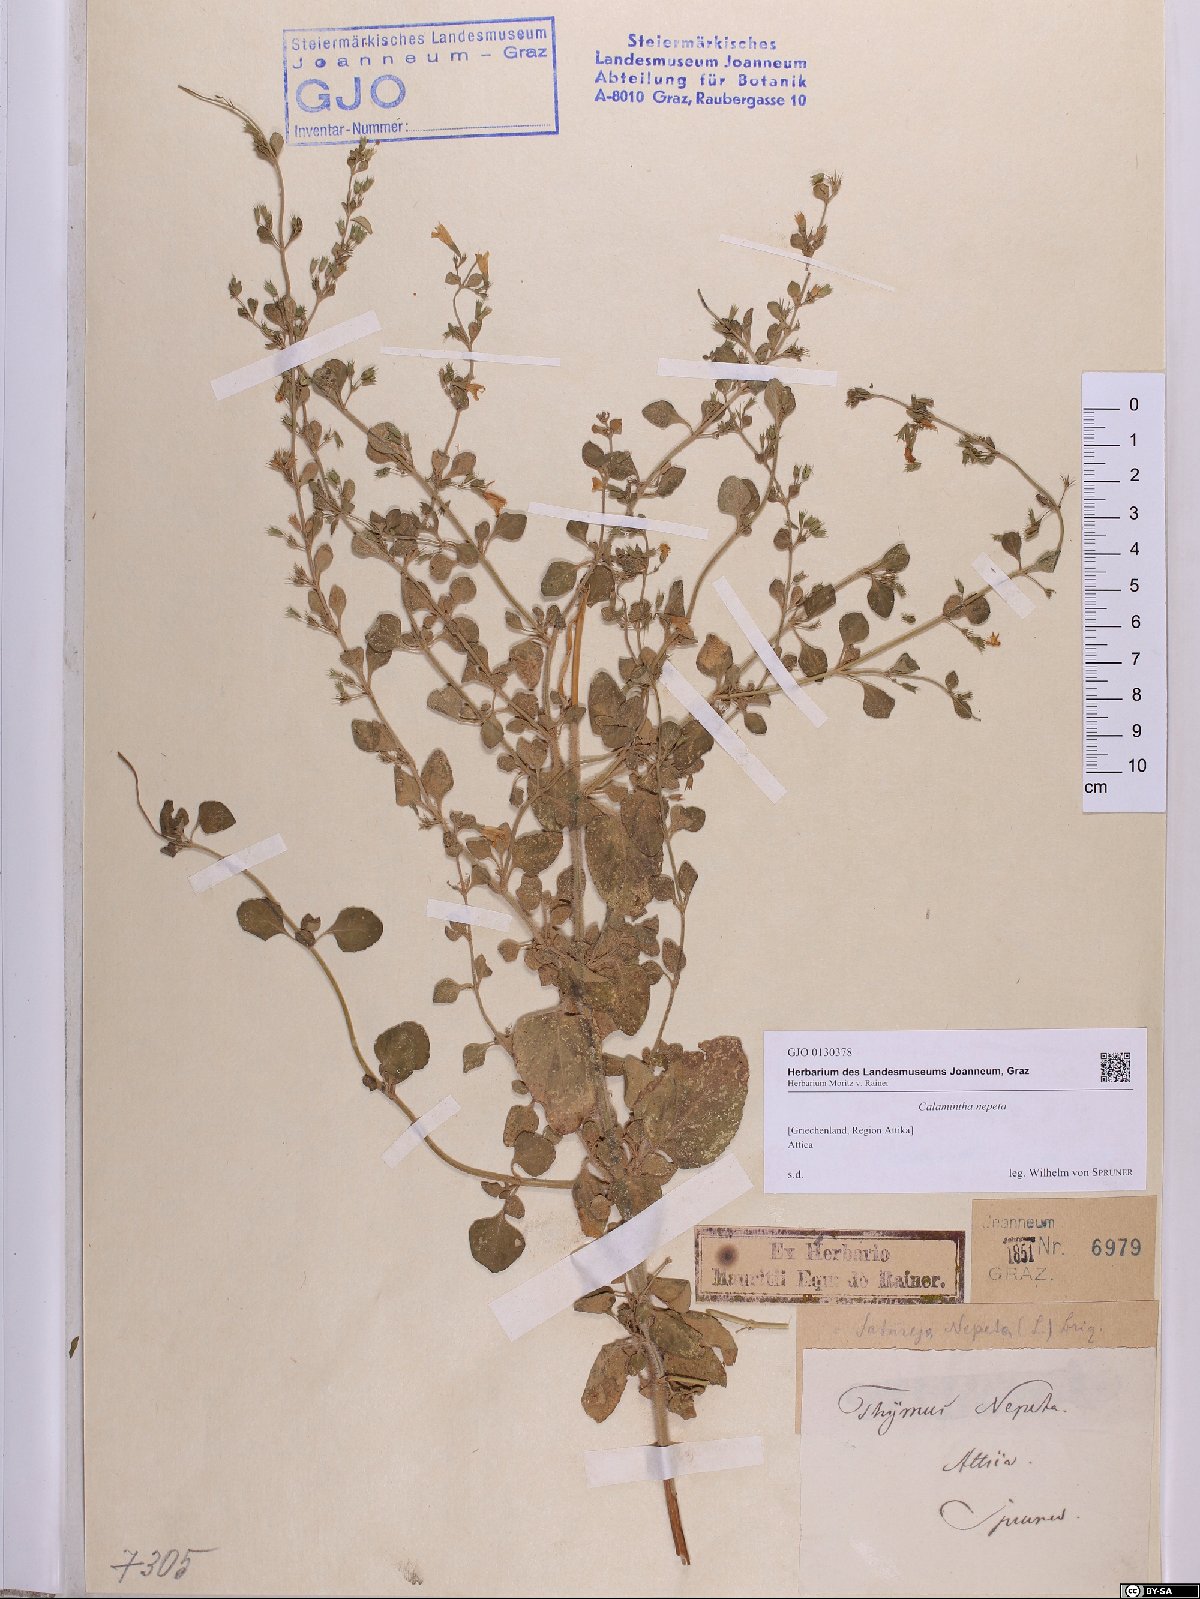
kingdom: Plantae
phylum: Tracheophyta
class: Magnoliopsida
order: Lamiales
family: Lamiaceae
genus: Clinopodium
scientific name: Clinopodium nepeta
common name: Lesser calamint
